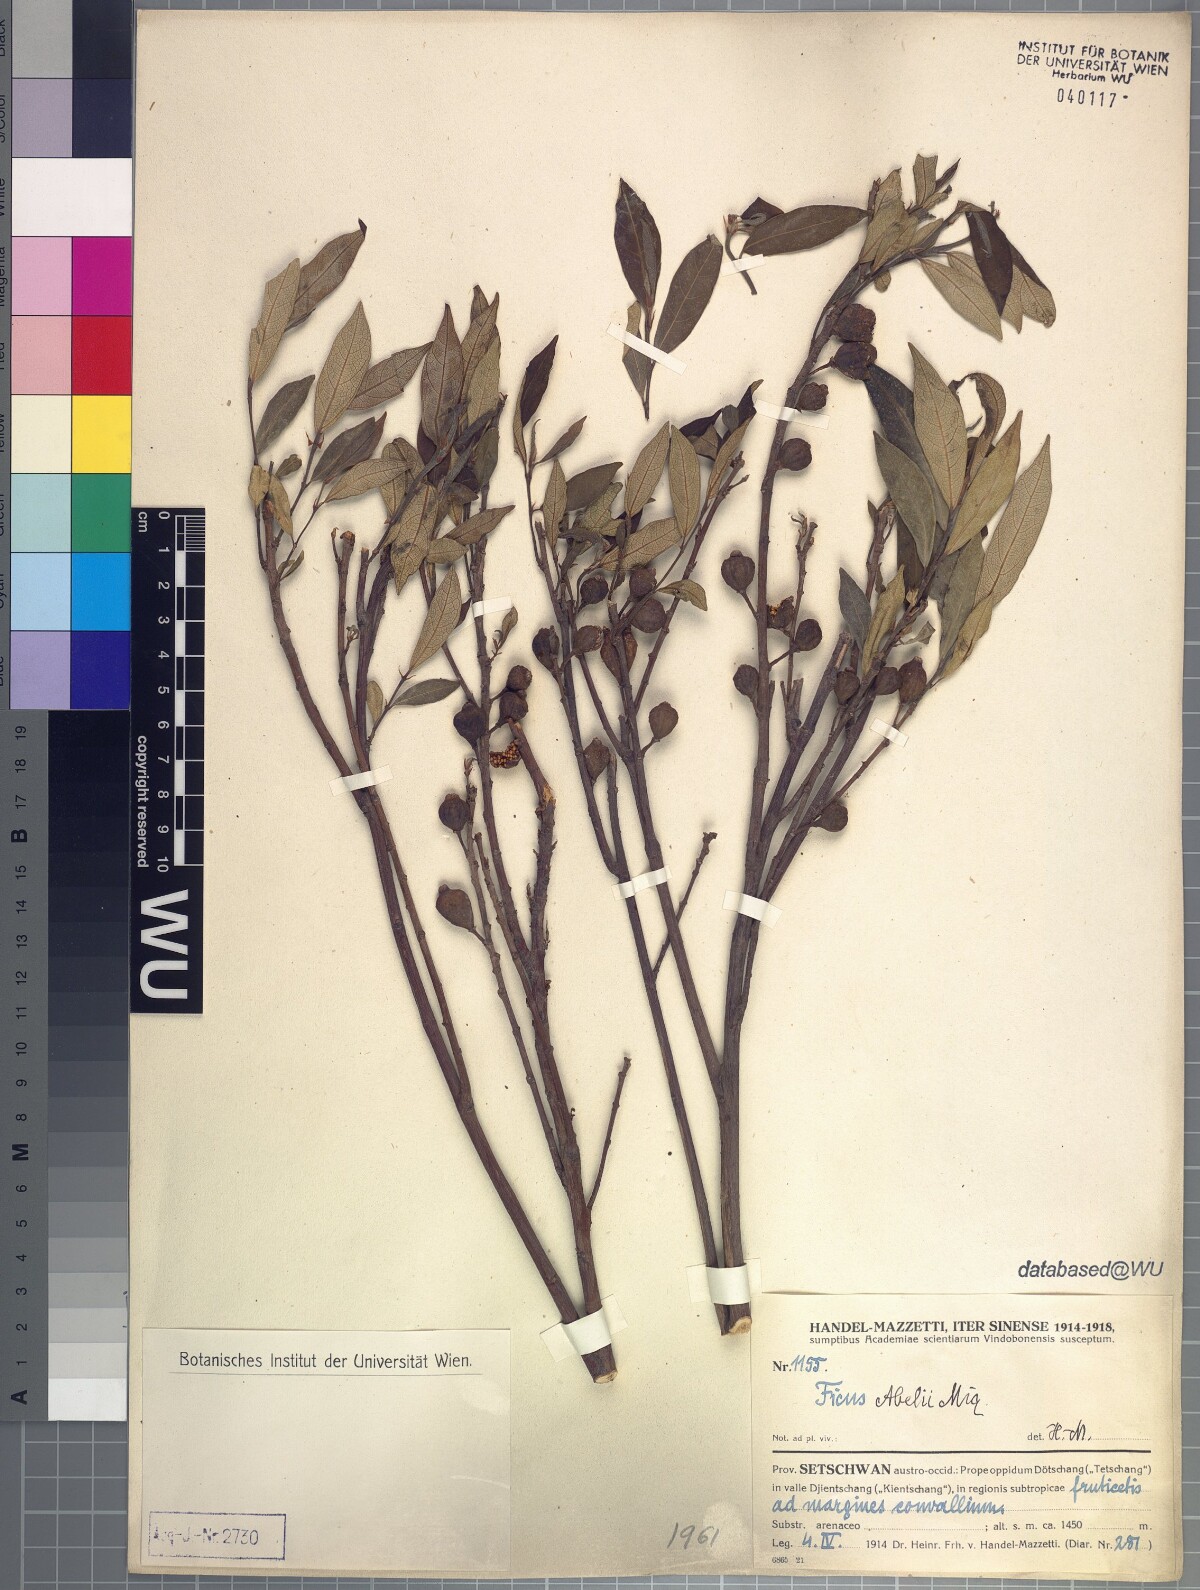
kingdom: Plantae
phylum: Tracheophyta
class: Magnoliopsida
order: Rosales
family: Moraceae
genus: Ficus
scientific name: Ficus abelii
